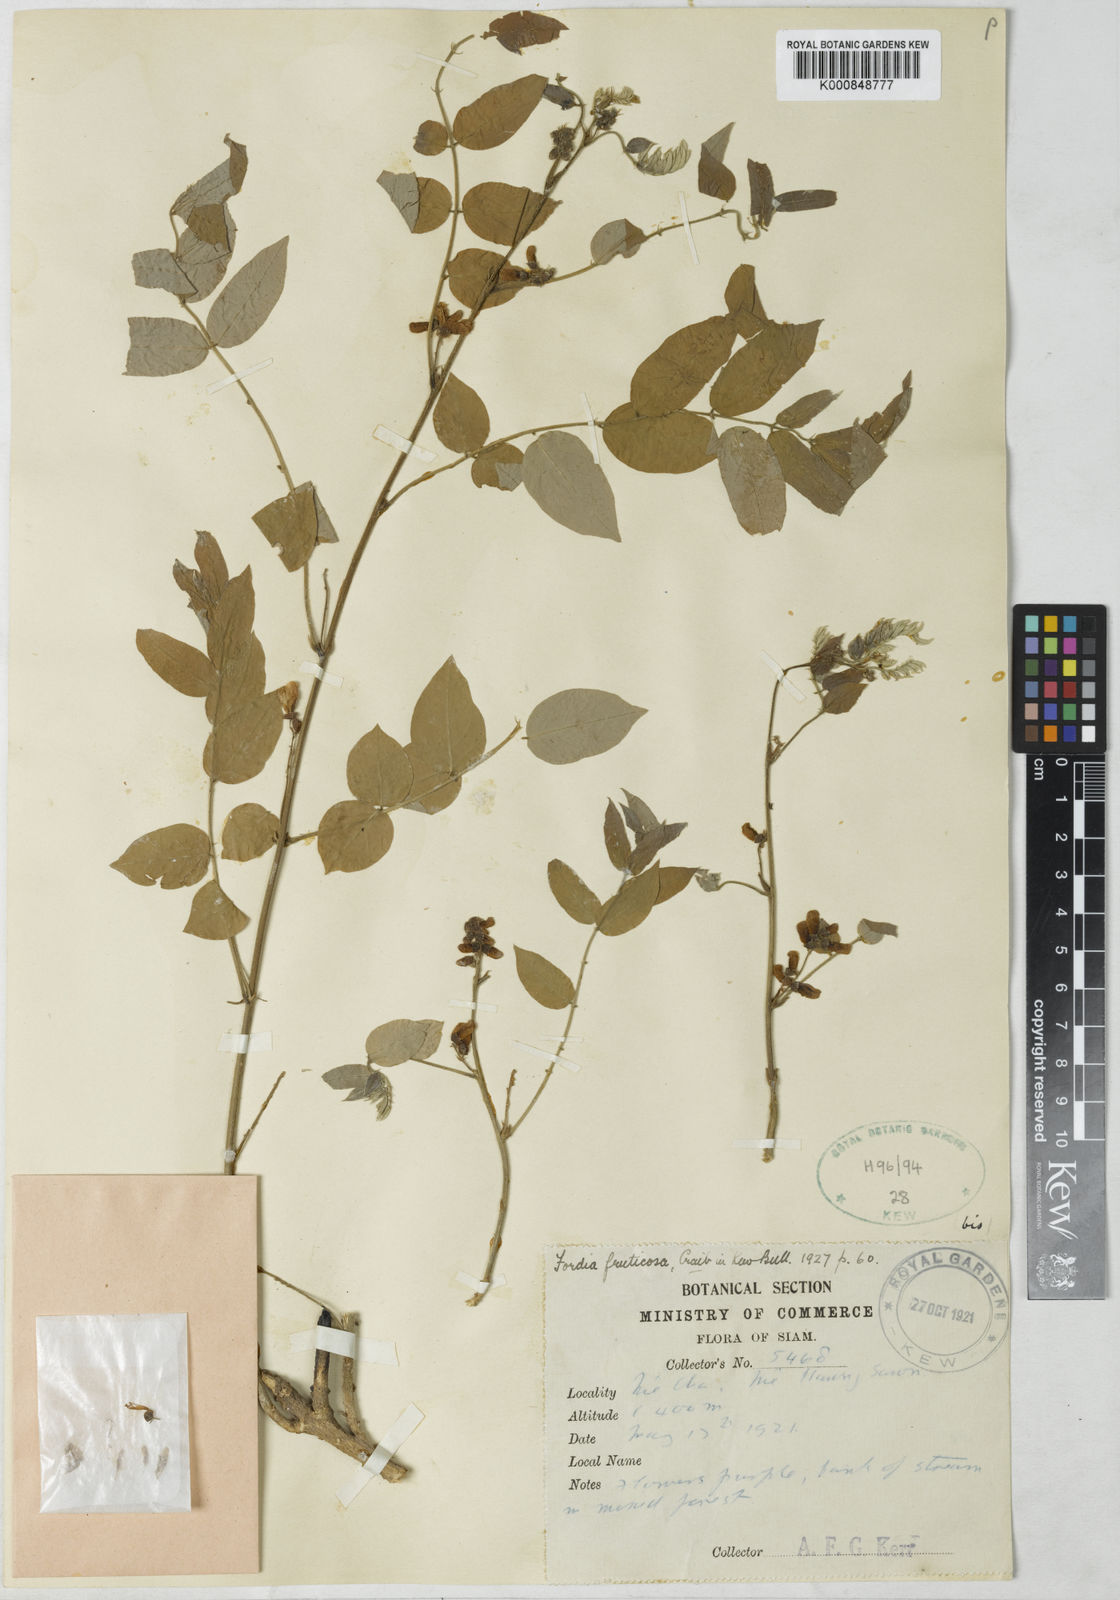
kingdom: Plantae
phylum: Tracheophyta
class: Magnoliopsida
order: Fabales
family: Fabaceae
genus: Millettia
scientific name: Millettia
